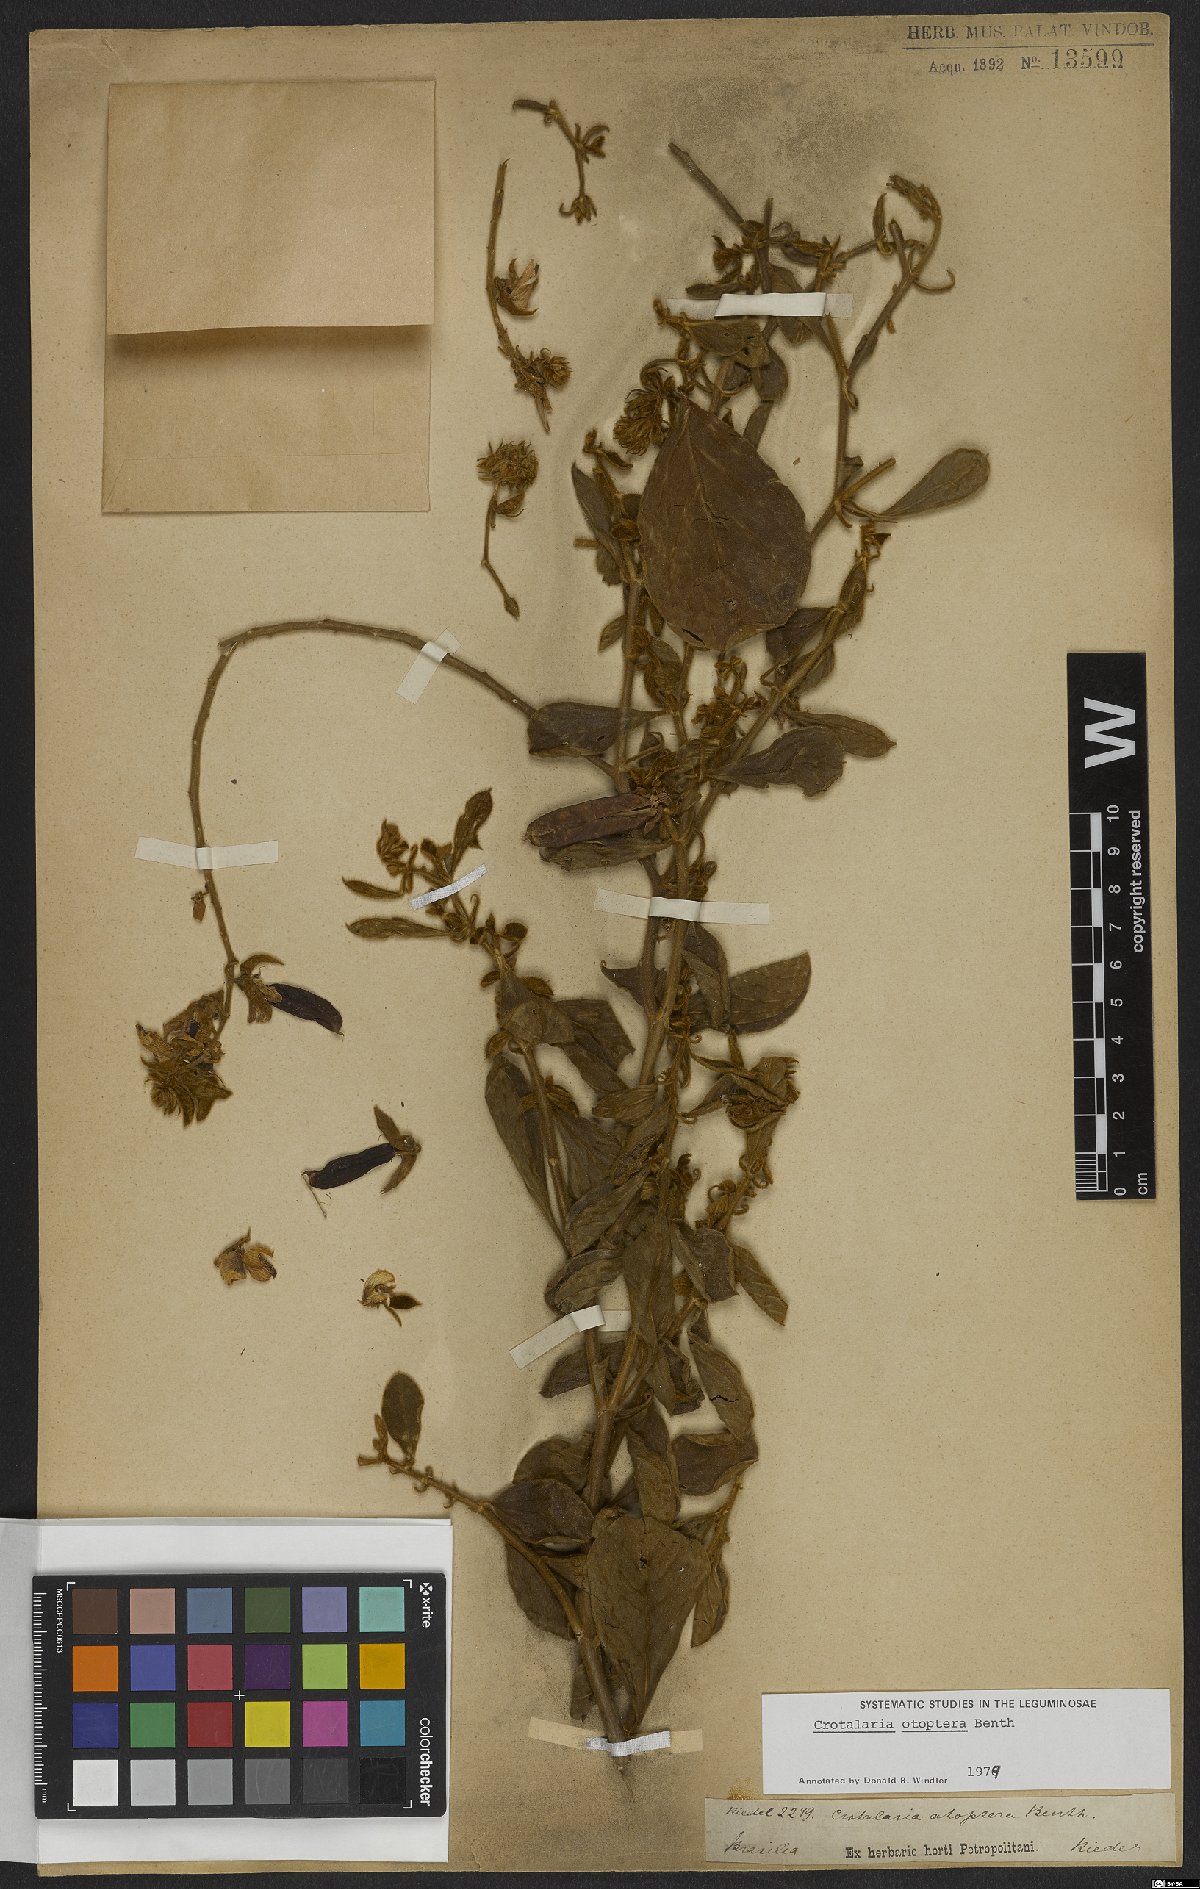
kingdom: Plantae
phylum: Tracheophyta
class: Magnoliopsida
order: Fabales
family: Fabaceae
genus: Crotalaria
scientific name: Crotalaria otoptera
